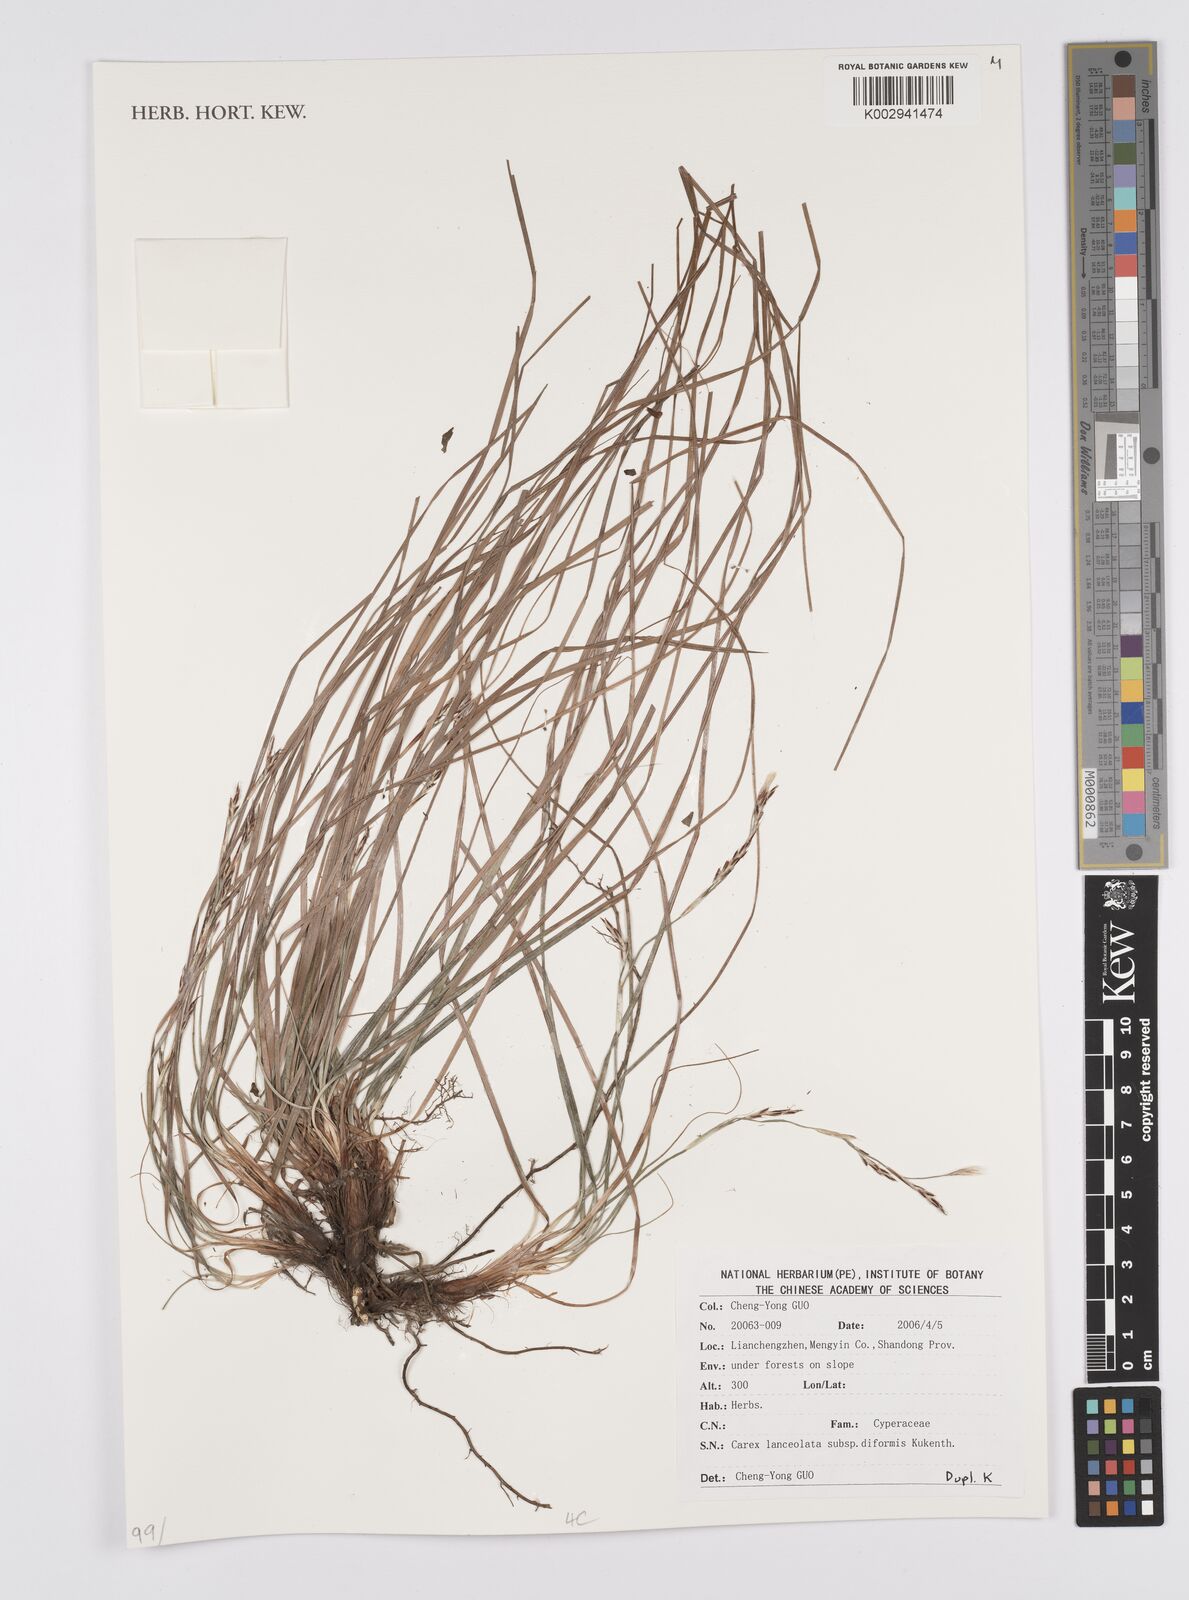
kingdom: Plantae
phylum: Tracheophyta
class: Liliopsida
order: Poales
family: Cyperaceae
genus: Carex
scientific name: Carex lanceolata
